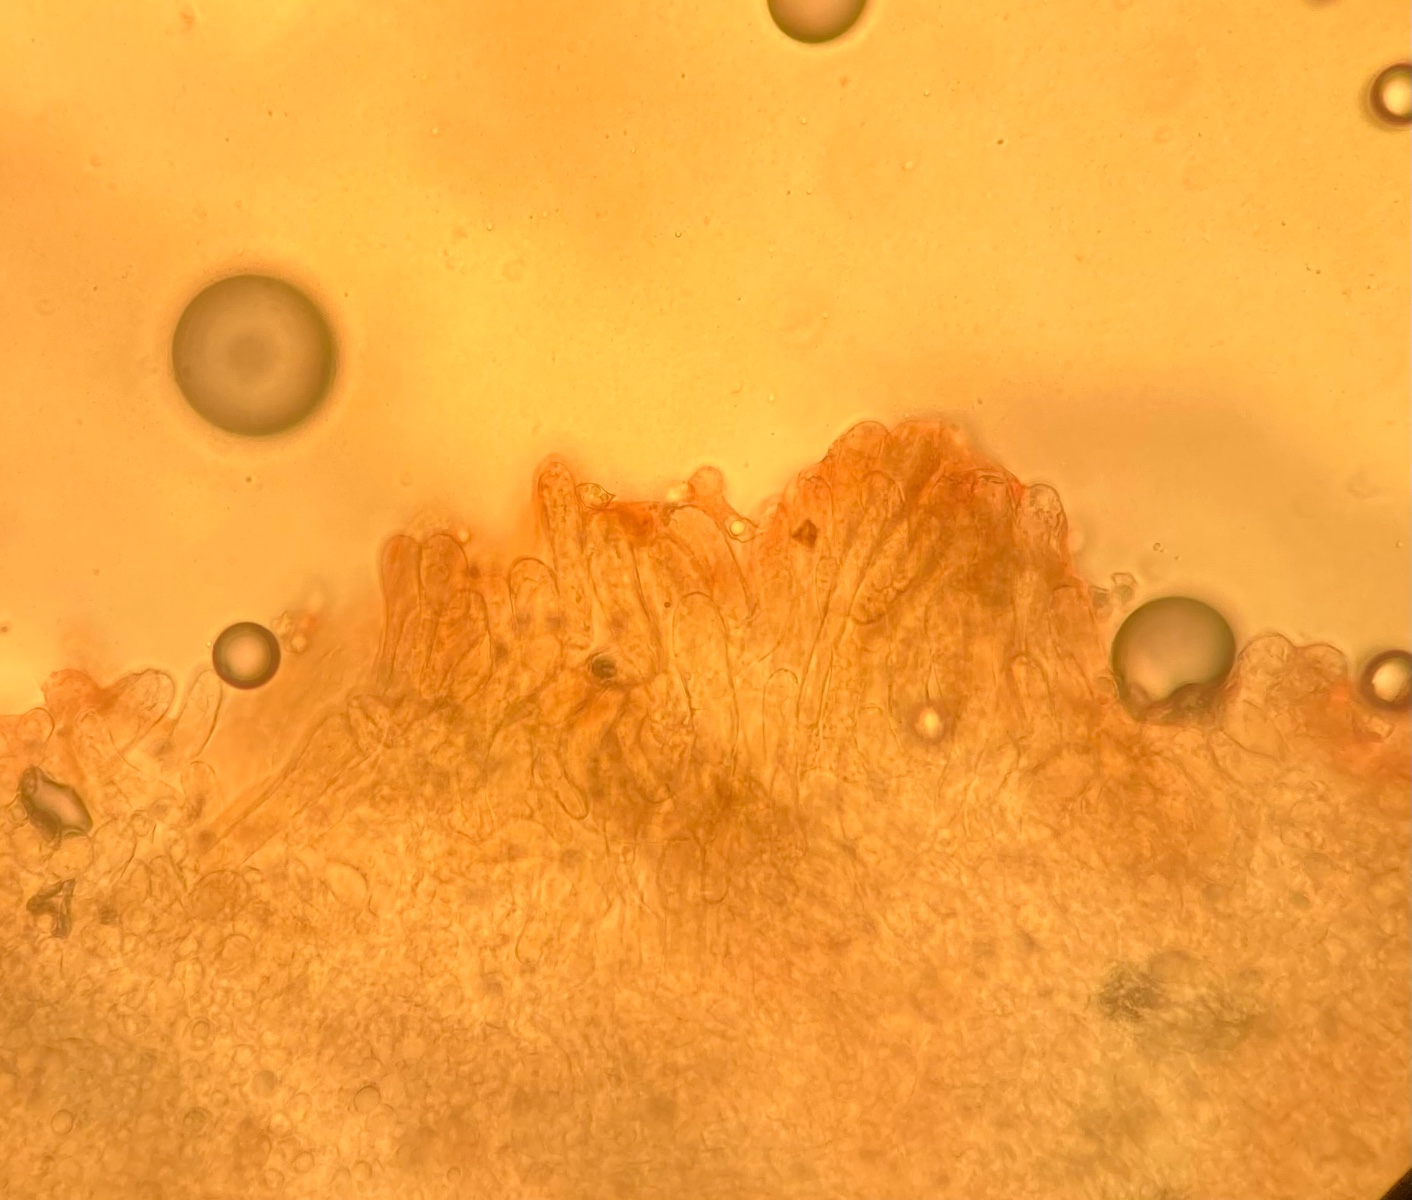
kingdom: Fungi
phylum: Basidiomycota
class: Agaricomycetes
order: Agaricales
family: Entolomataceae
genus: Entoloma
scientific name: Entoloma ochromicaceum
